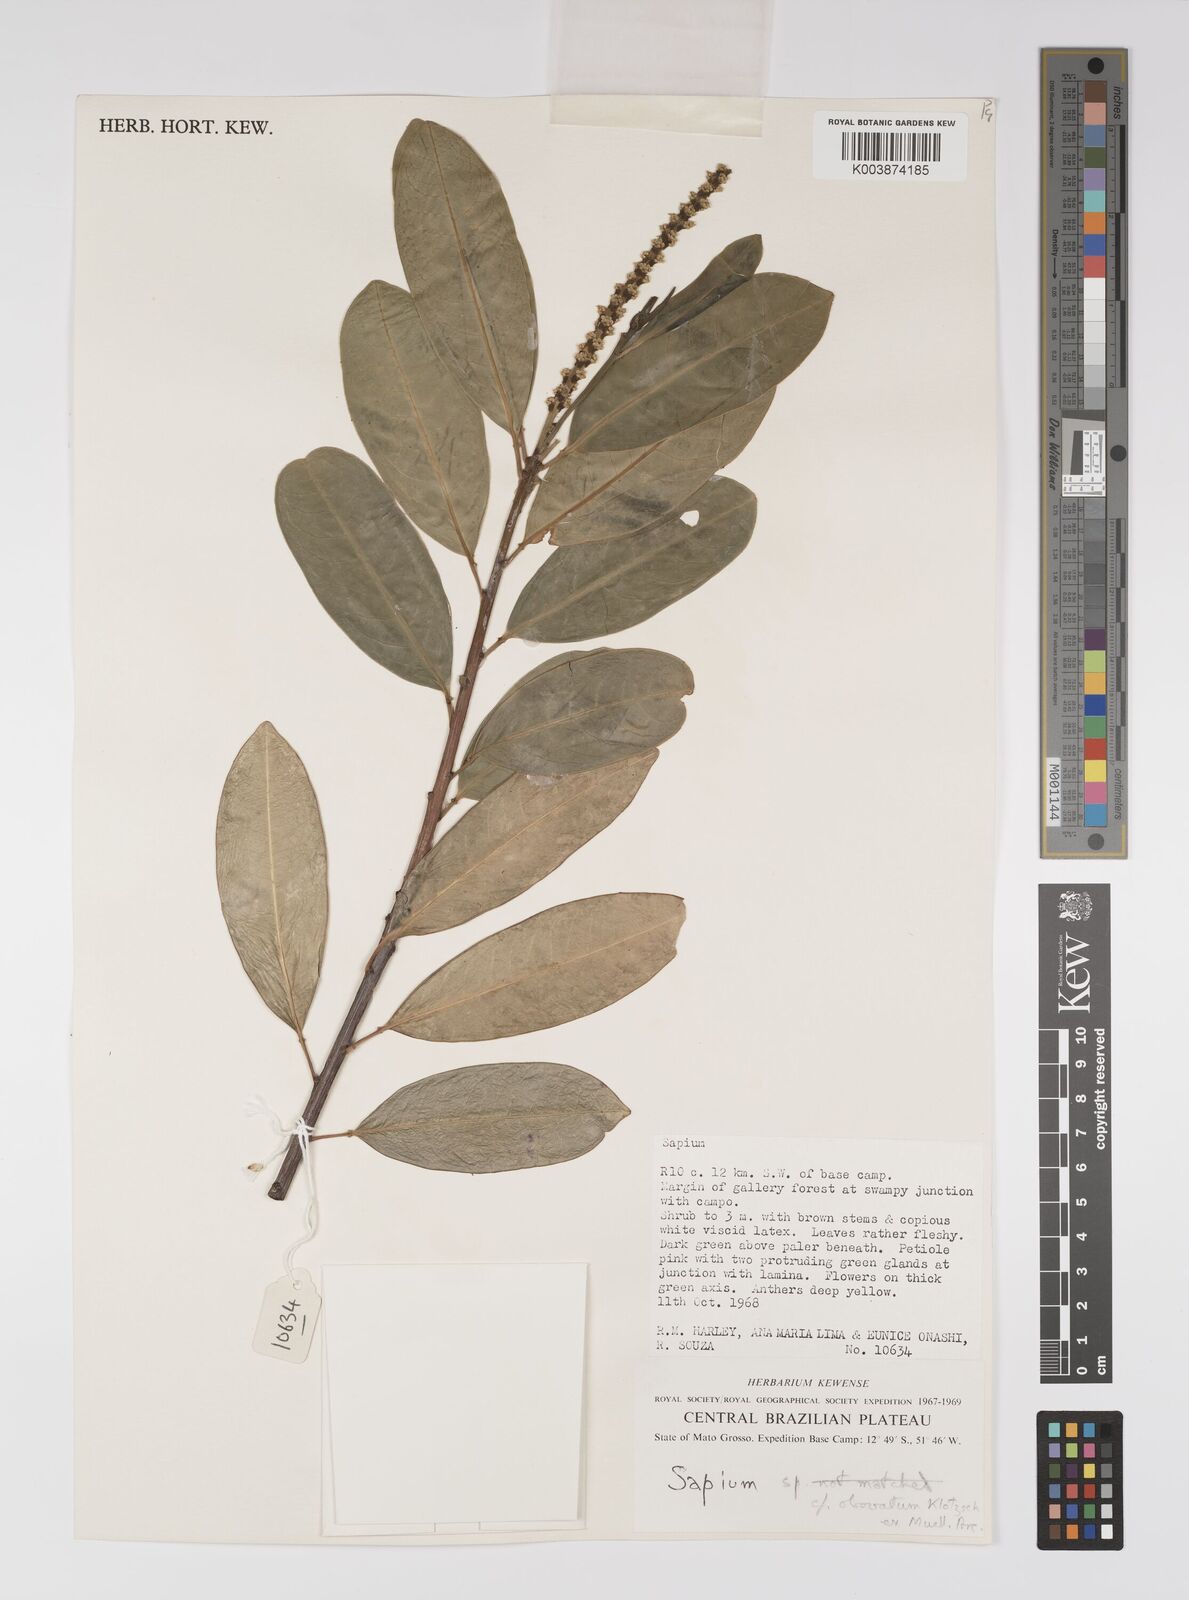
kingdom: Plantae
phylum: Tracheophyta
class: Magnoliopsida
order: Malpighiales
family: Euphorbiaceae
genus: Sapium
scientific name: Sapium
